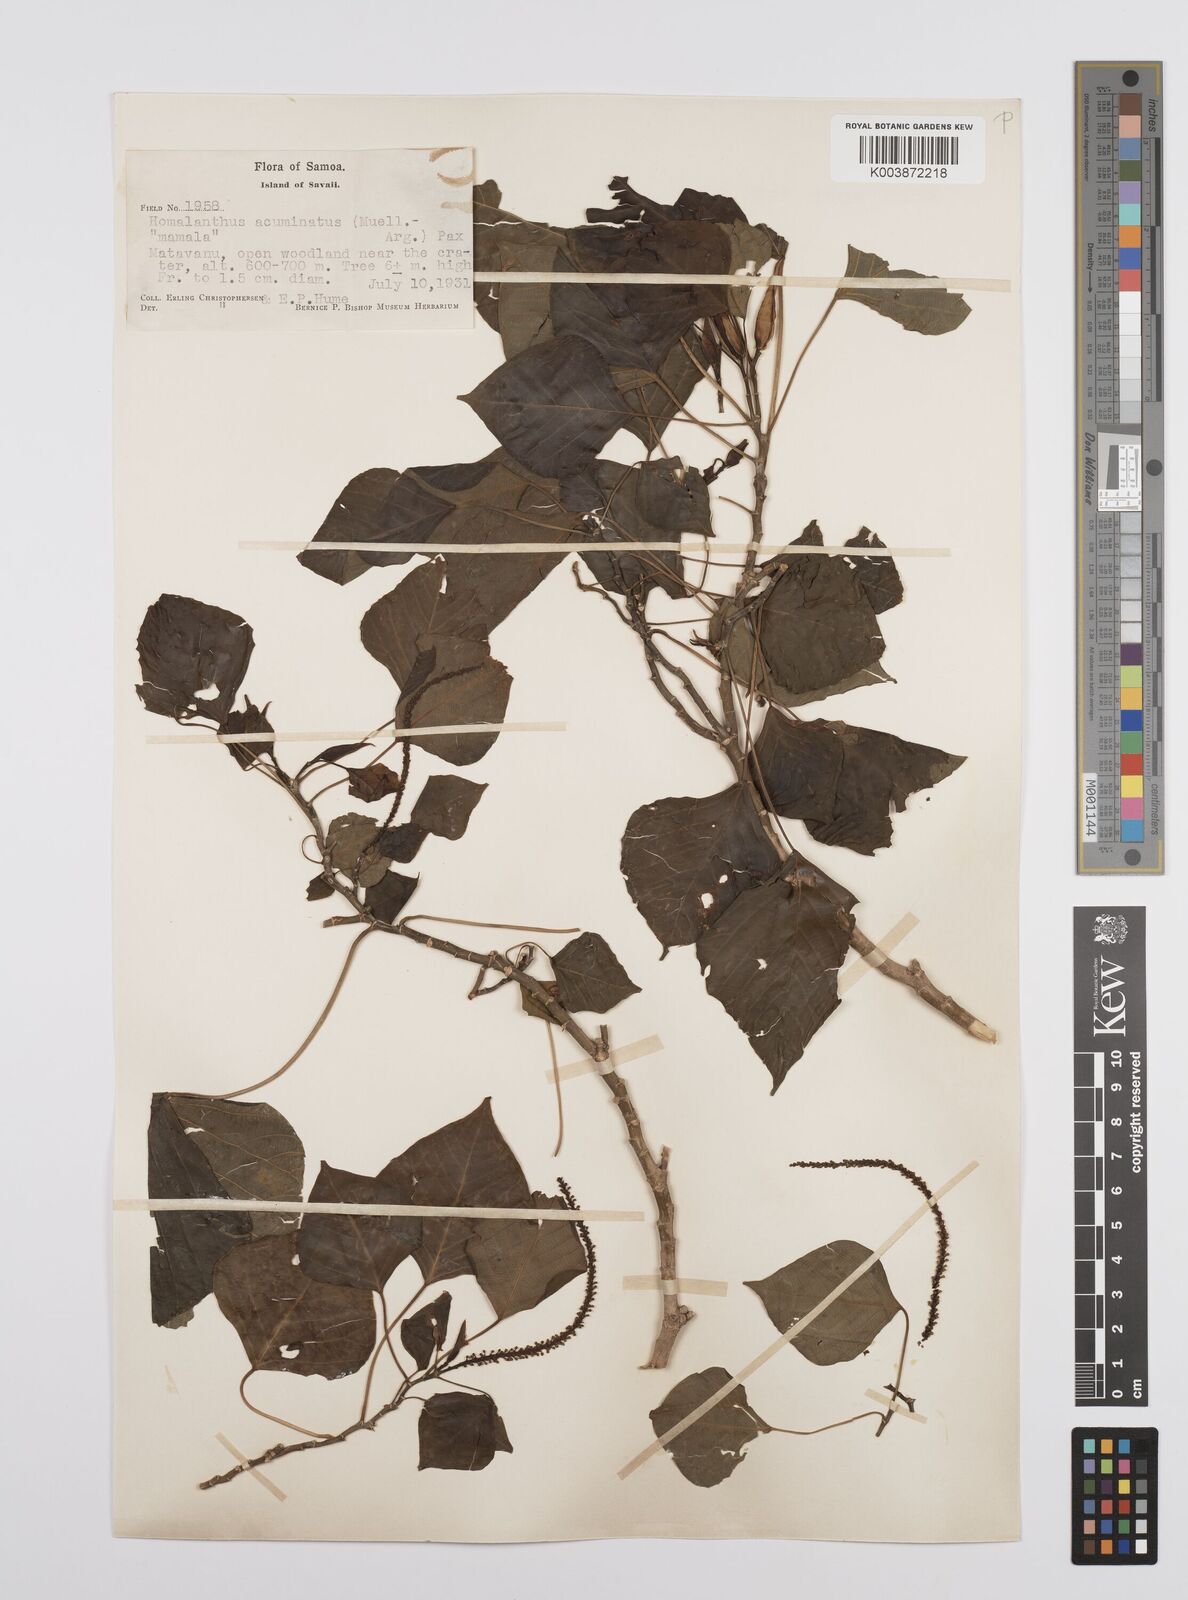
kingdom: Plantae
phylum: Tracheophyta
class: Magnoliopsida
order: Malpighiales
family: Euphorbiaceae
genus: Homalanthus
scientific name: Homalanthus acuminatus
